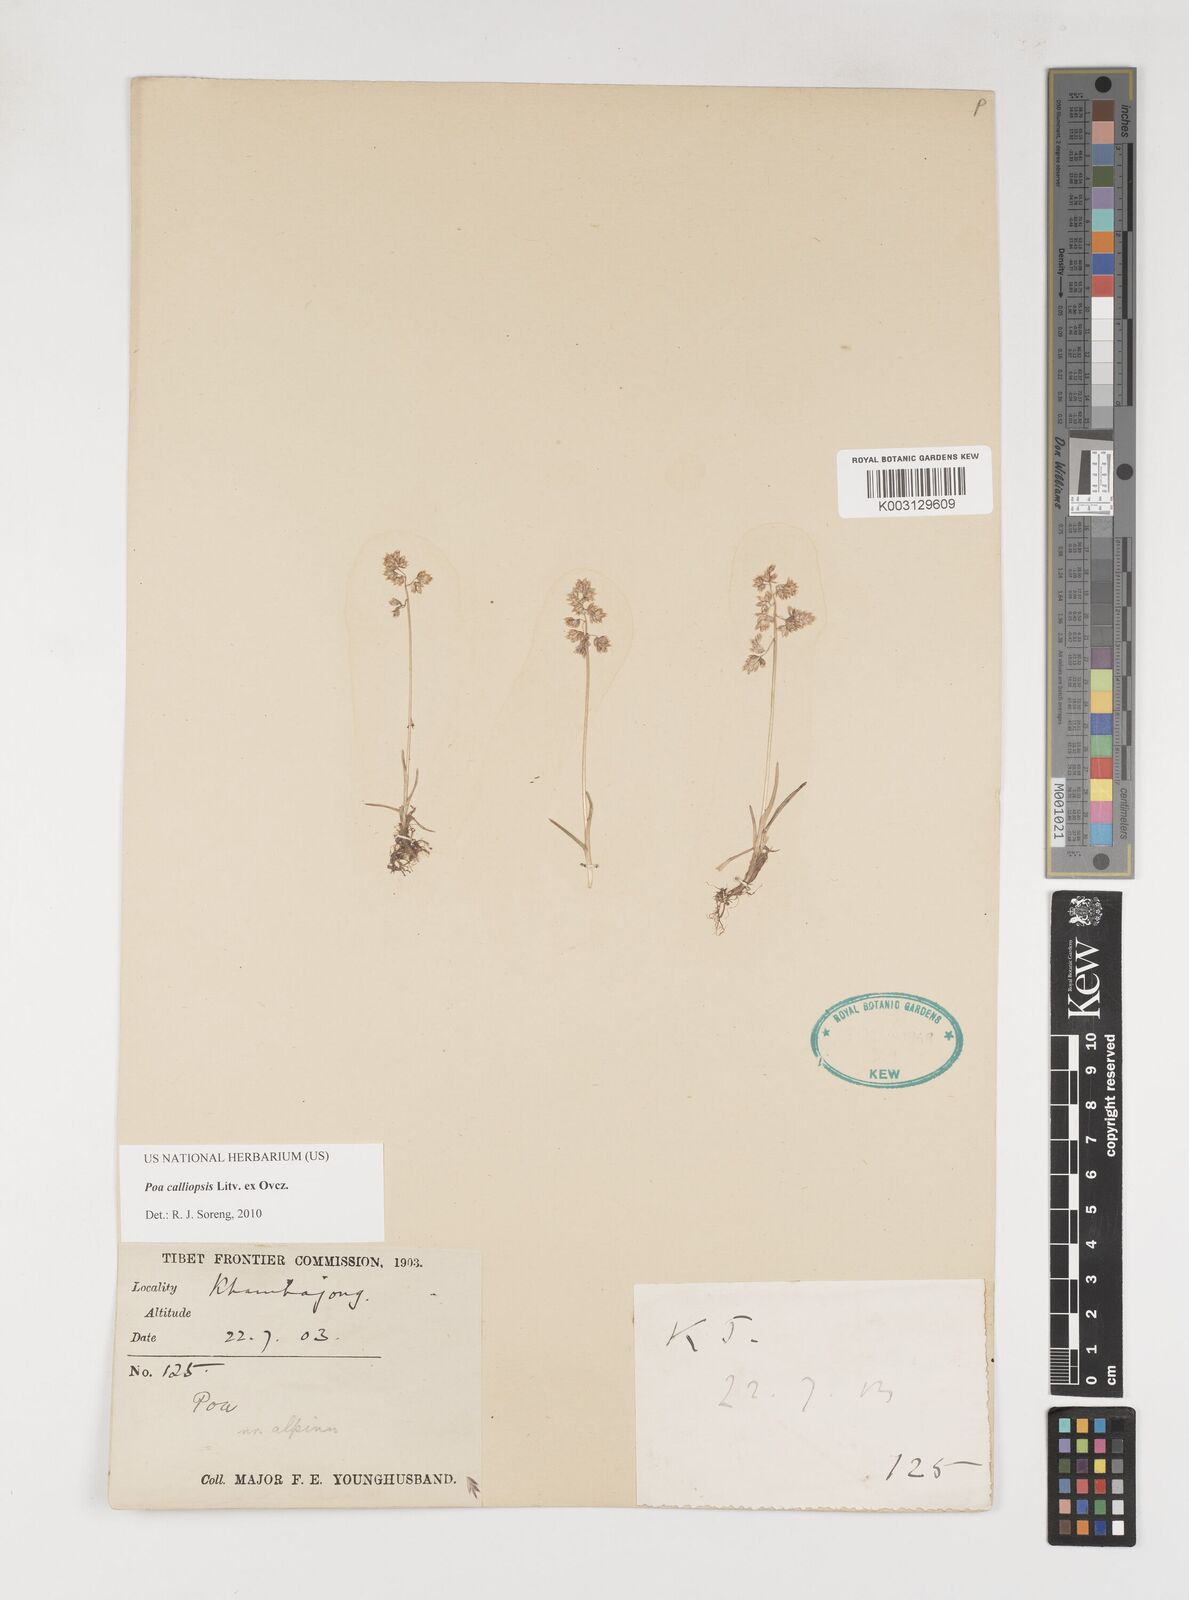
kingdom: Plantae
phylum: Tracheophyta
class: Liliopsida
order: Poales
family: Poaceae
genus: Poa
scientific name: Poa calliopsis
